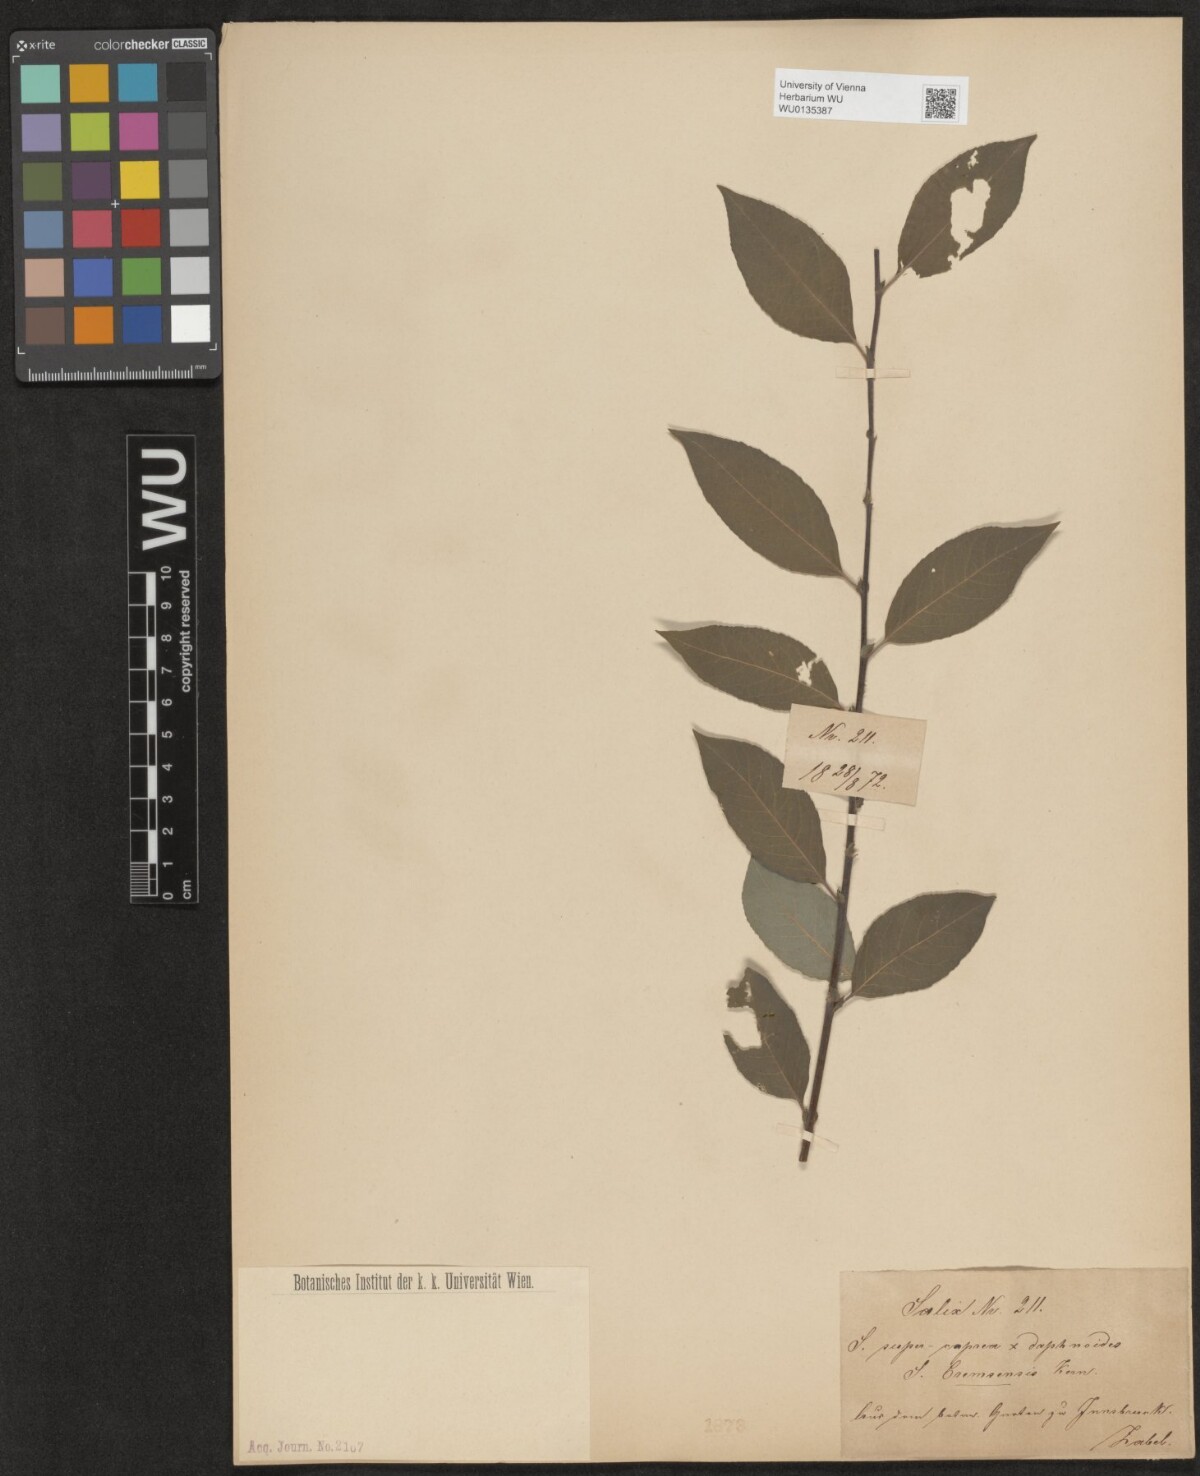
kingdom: Plantae
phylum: Tracheophyta
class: Magnoliopsida
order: Malpighiales
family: Salicaceae
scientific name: Salicaceae
